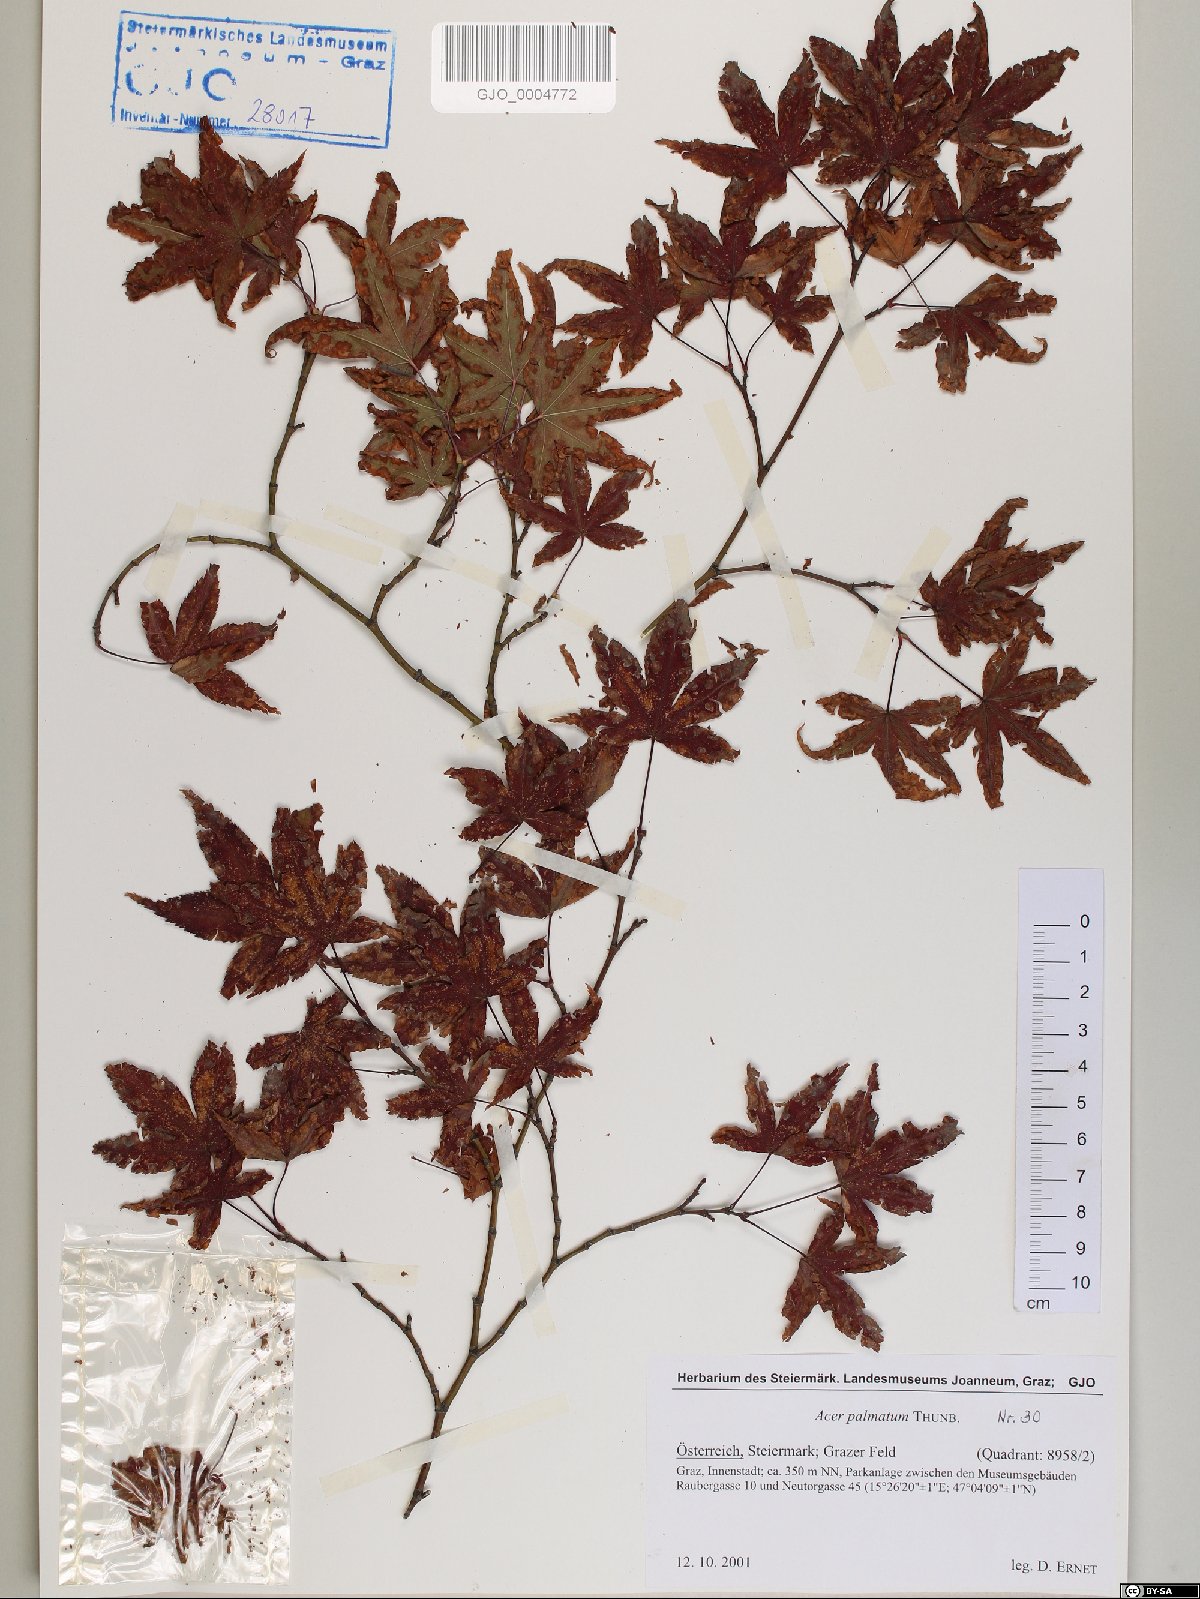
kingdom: Plantae
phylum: Tracheophyta
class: Magnoliopsida
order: Sapindales
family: Sapindaceae
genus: Acer
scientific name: Acer palmatum
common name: Japanese maple
